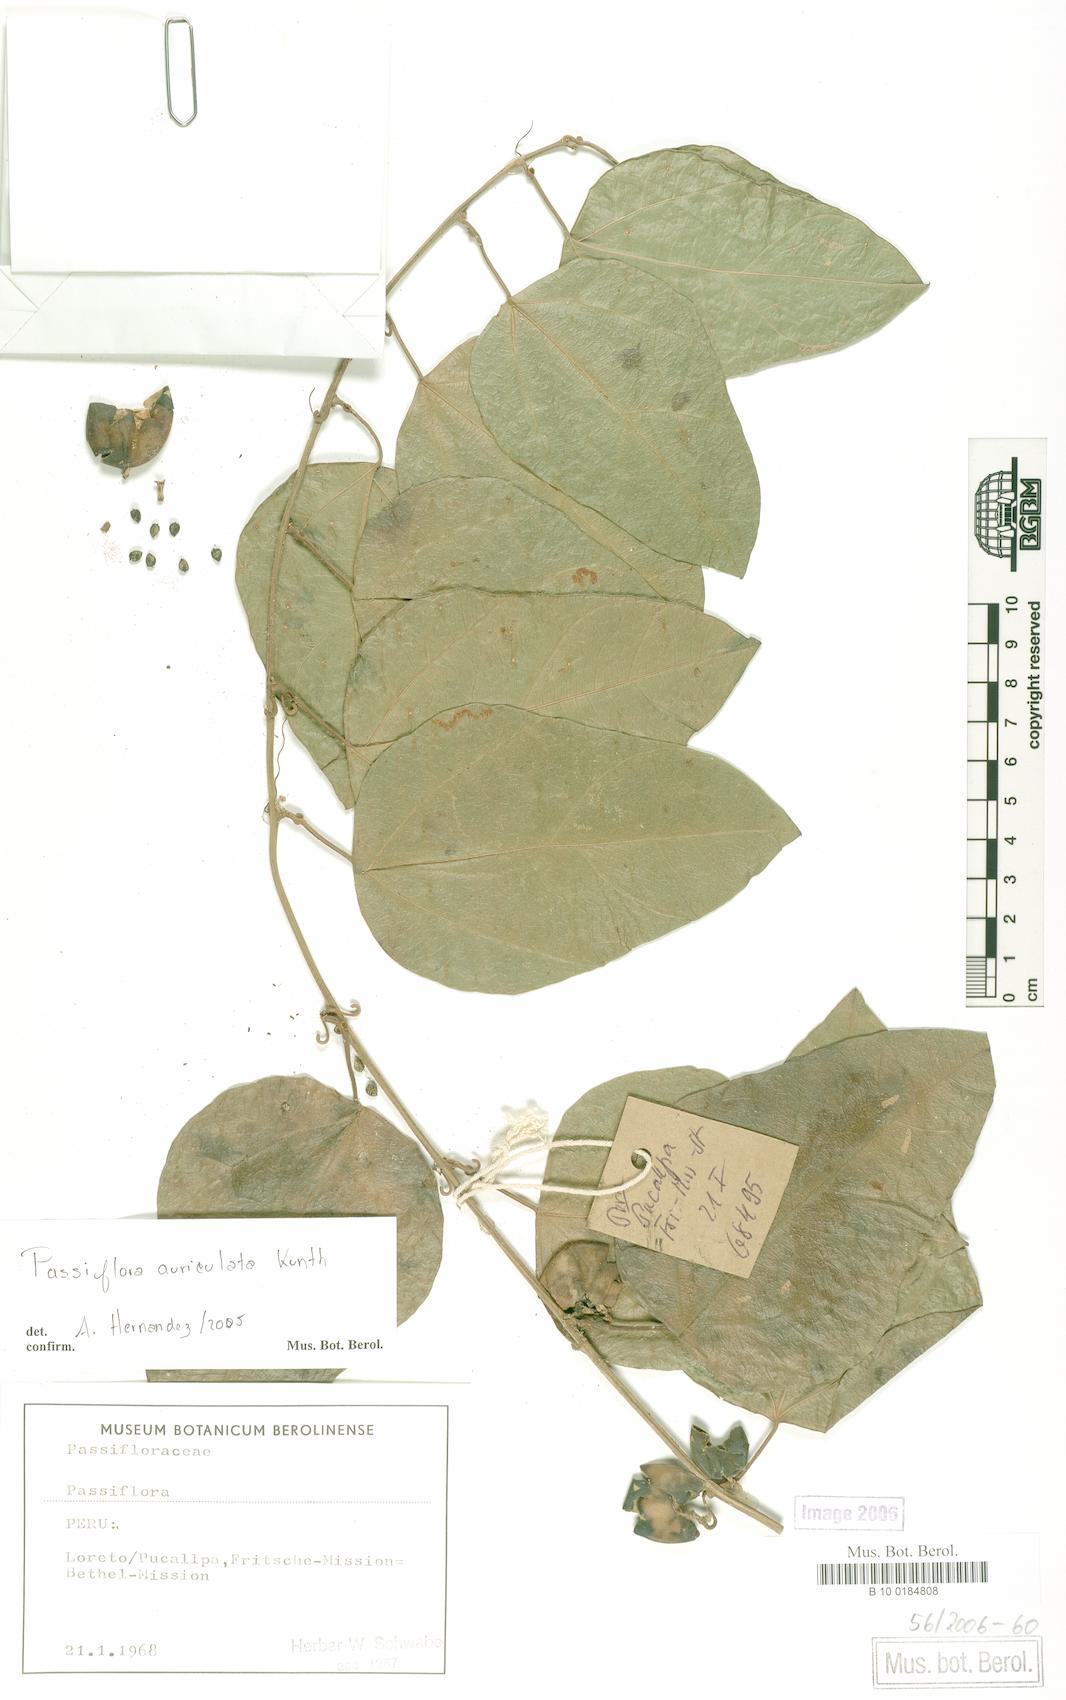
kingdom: Plantae
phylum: Tracheophyta
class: Magnoliopsida
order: Malpighiales
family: Passifloraceae
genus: Passiflora
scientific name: Passiflora auriculata
